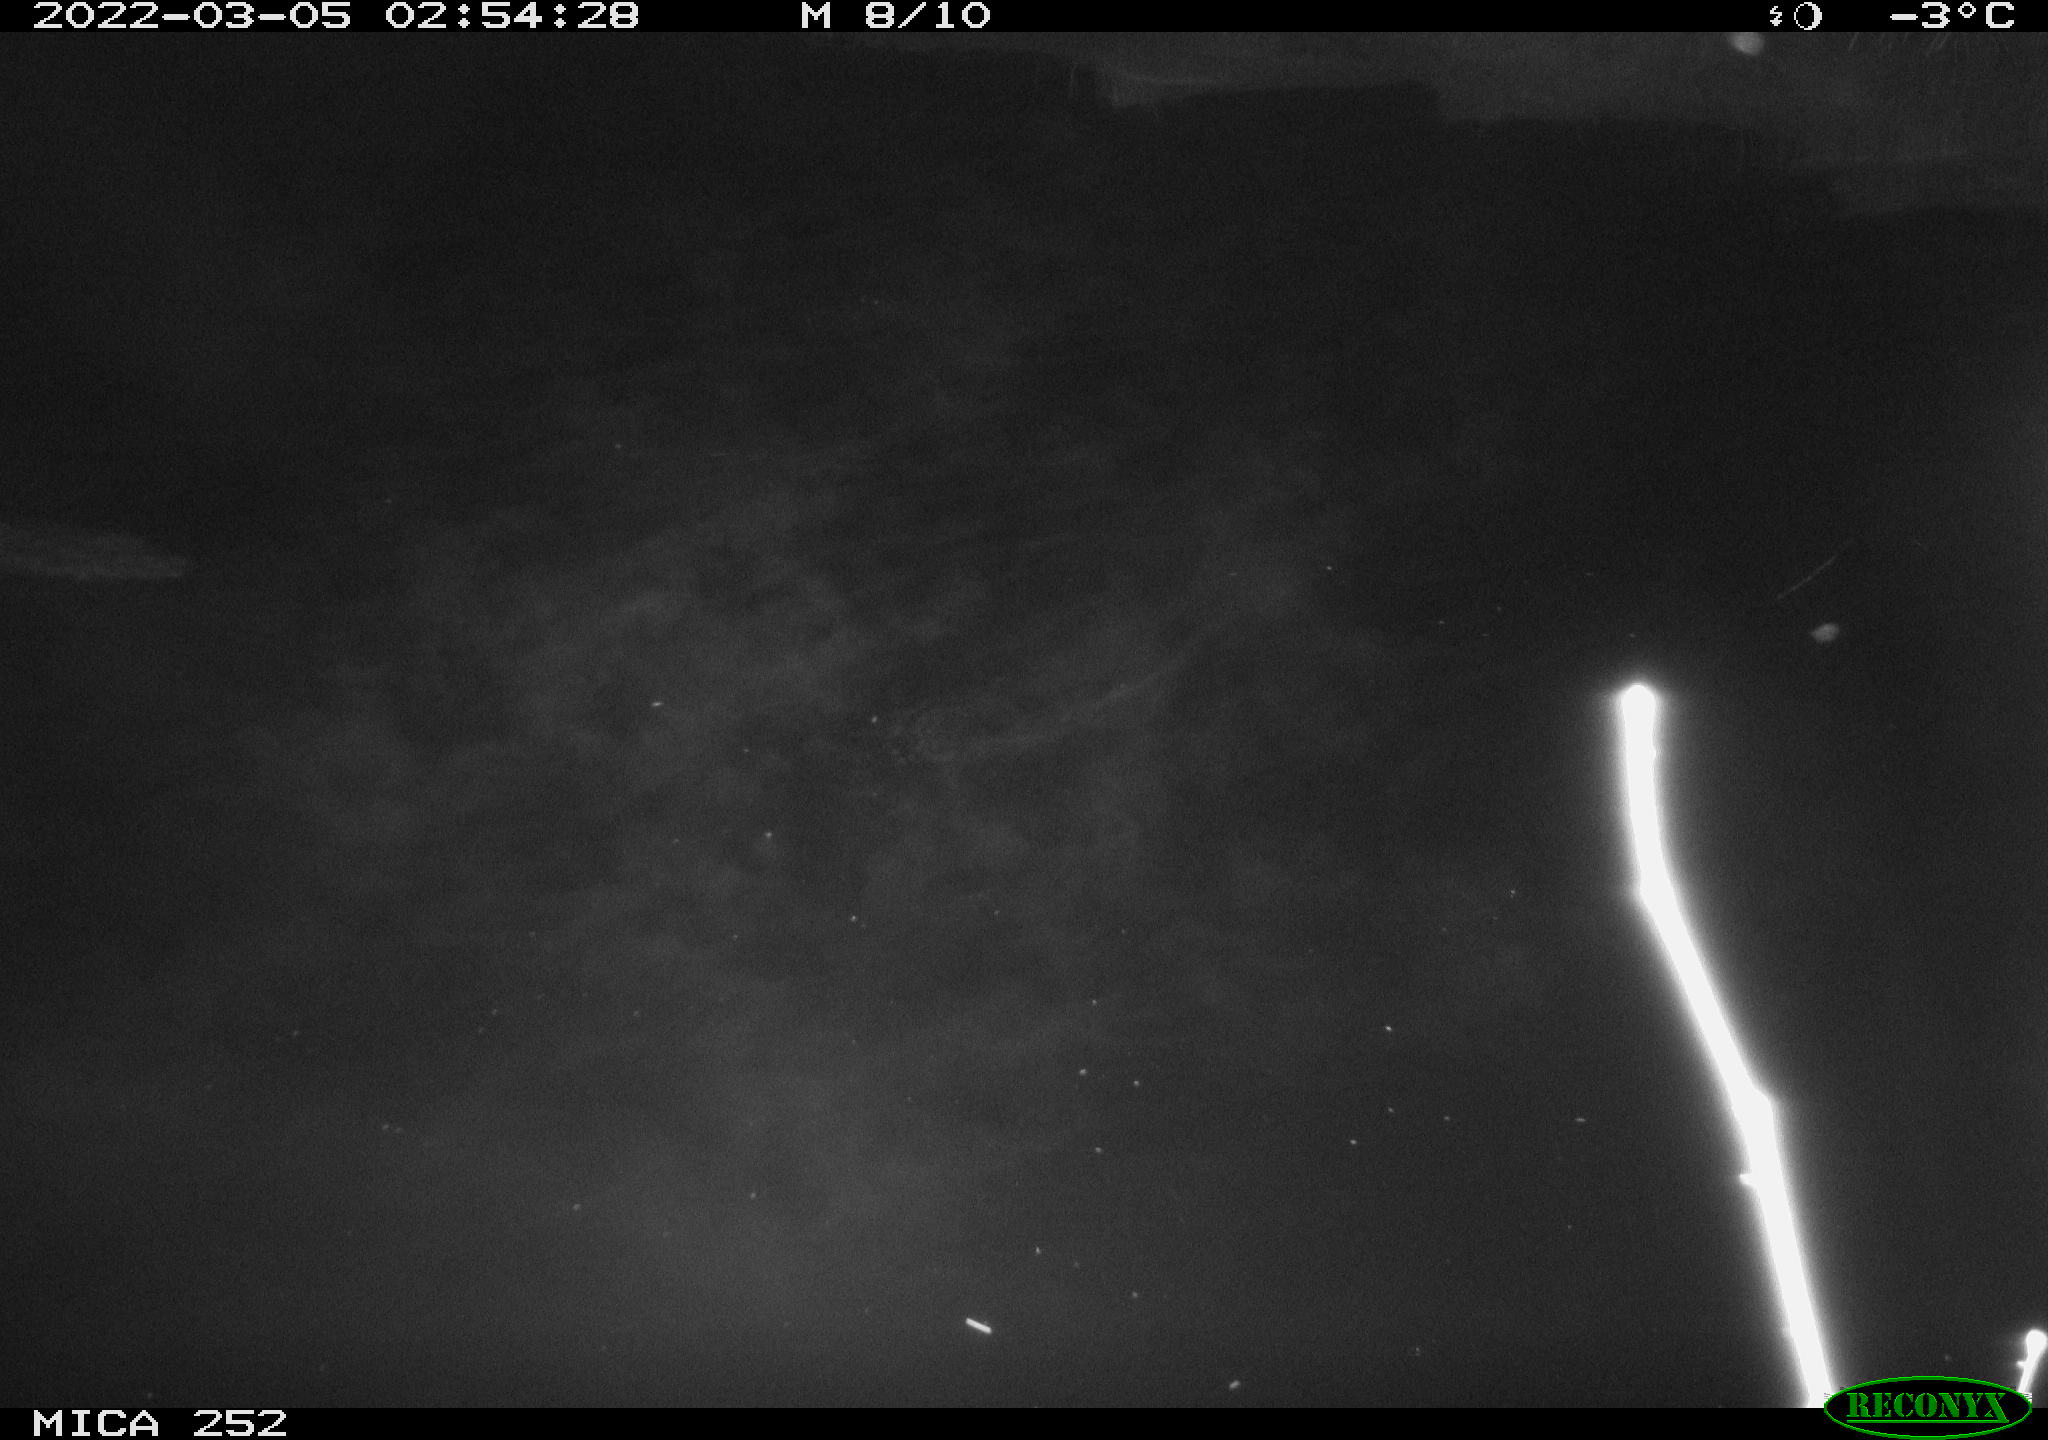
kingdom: Animalia
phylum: Chordata
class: Mammalia
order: Rodentia
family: Castoridae
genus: Castor
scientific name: Castor fiber
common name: Eurasian beaver
